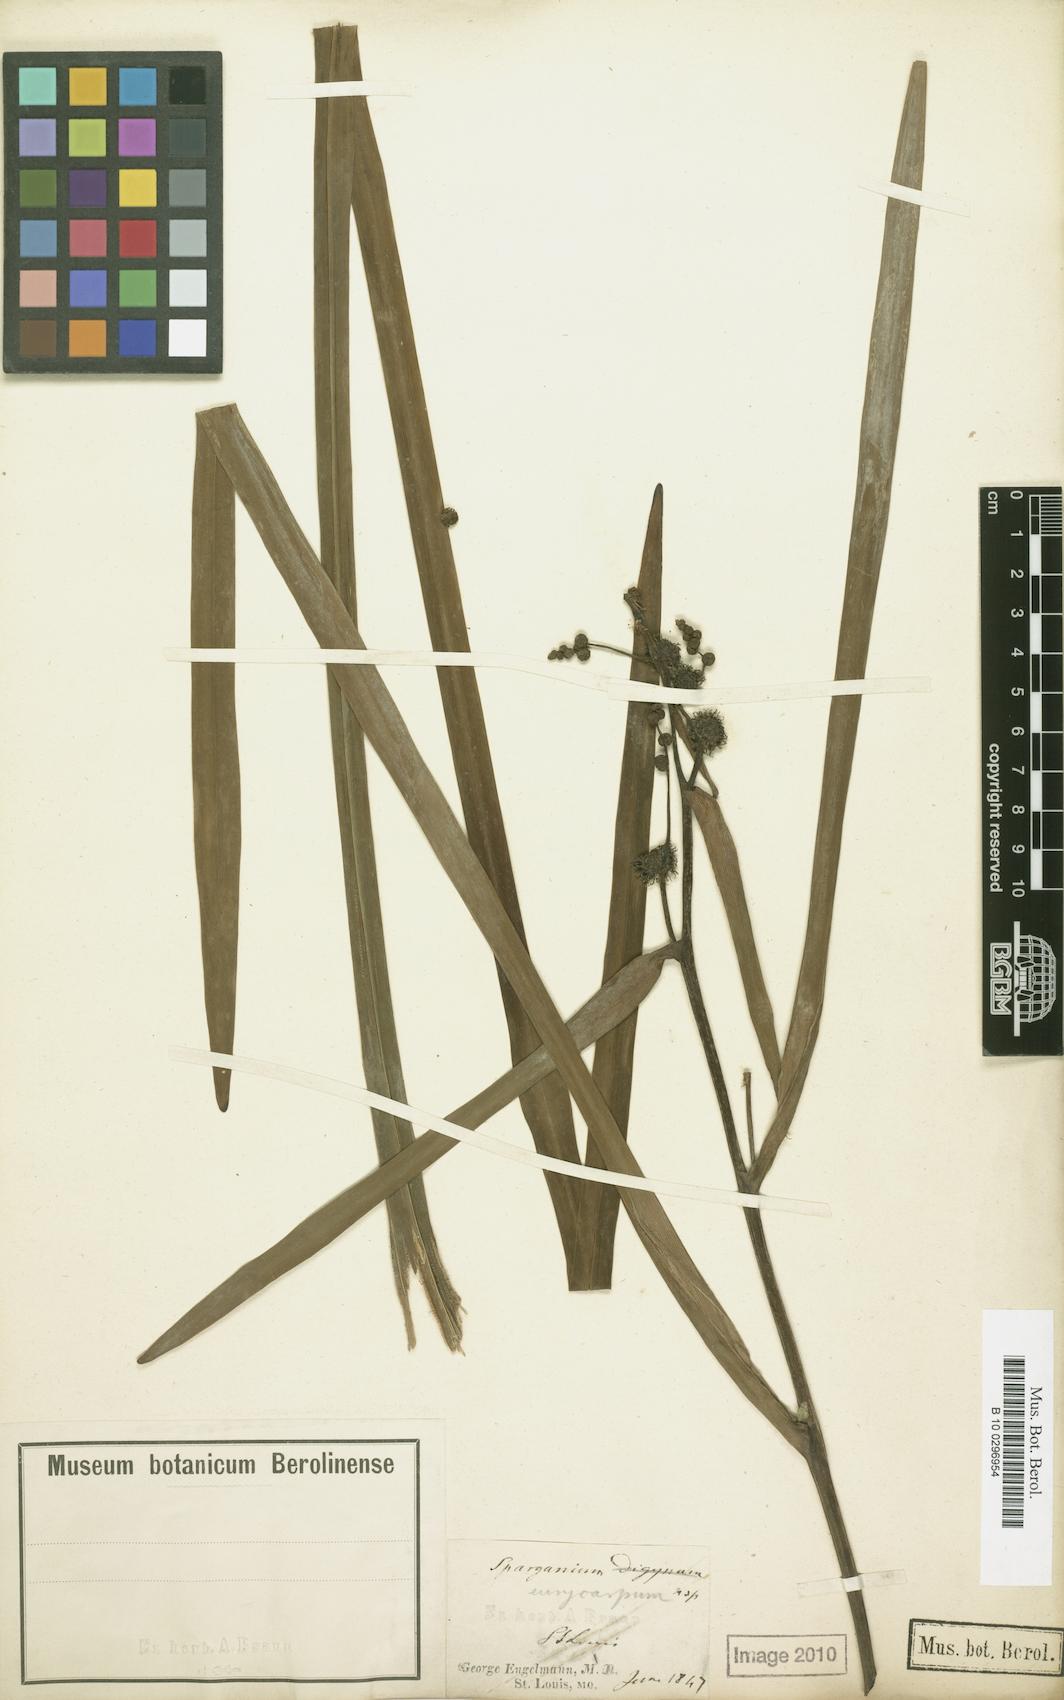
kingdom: Plantae
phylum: Tracheophyta
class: Liliopsida
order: Poales
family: Typhaceae
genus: Sparganium
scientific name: Sparganium eurycarpum
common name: Broad-fruited burreed
